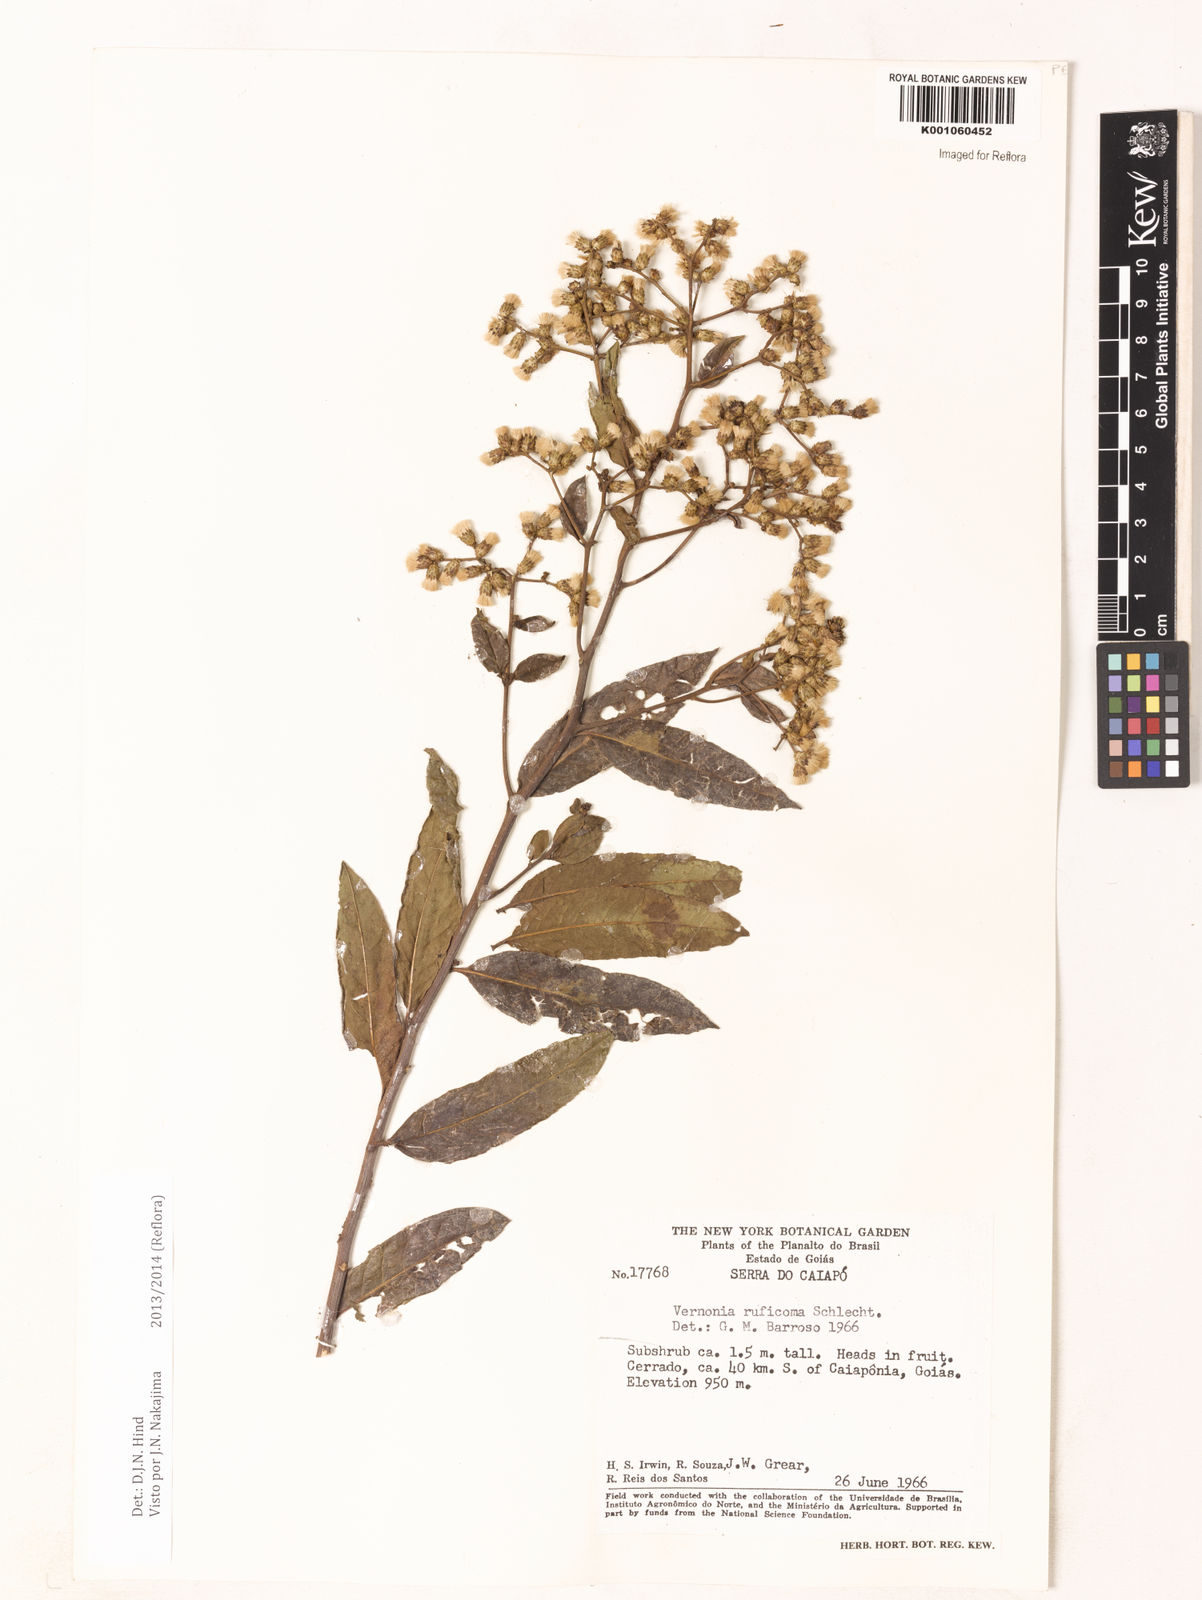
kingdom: Plantae
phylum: Tracheophyta
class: Magnoliopsida
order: Asterales
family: Asteraceae
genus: Vernonia
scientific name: Vernonia
